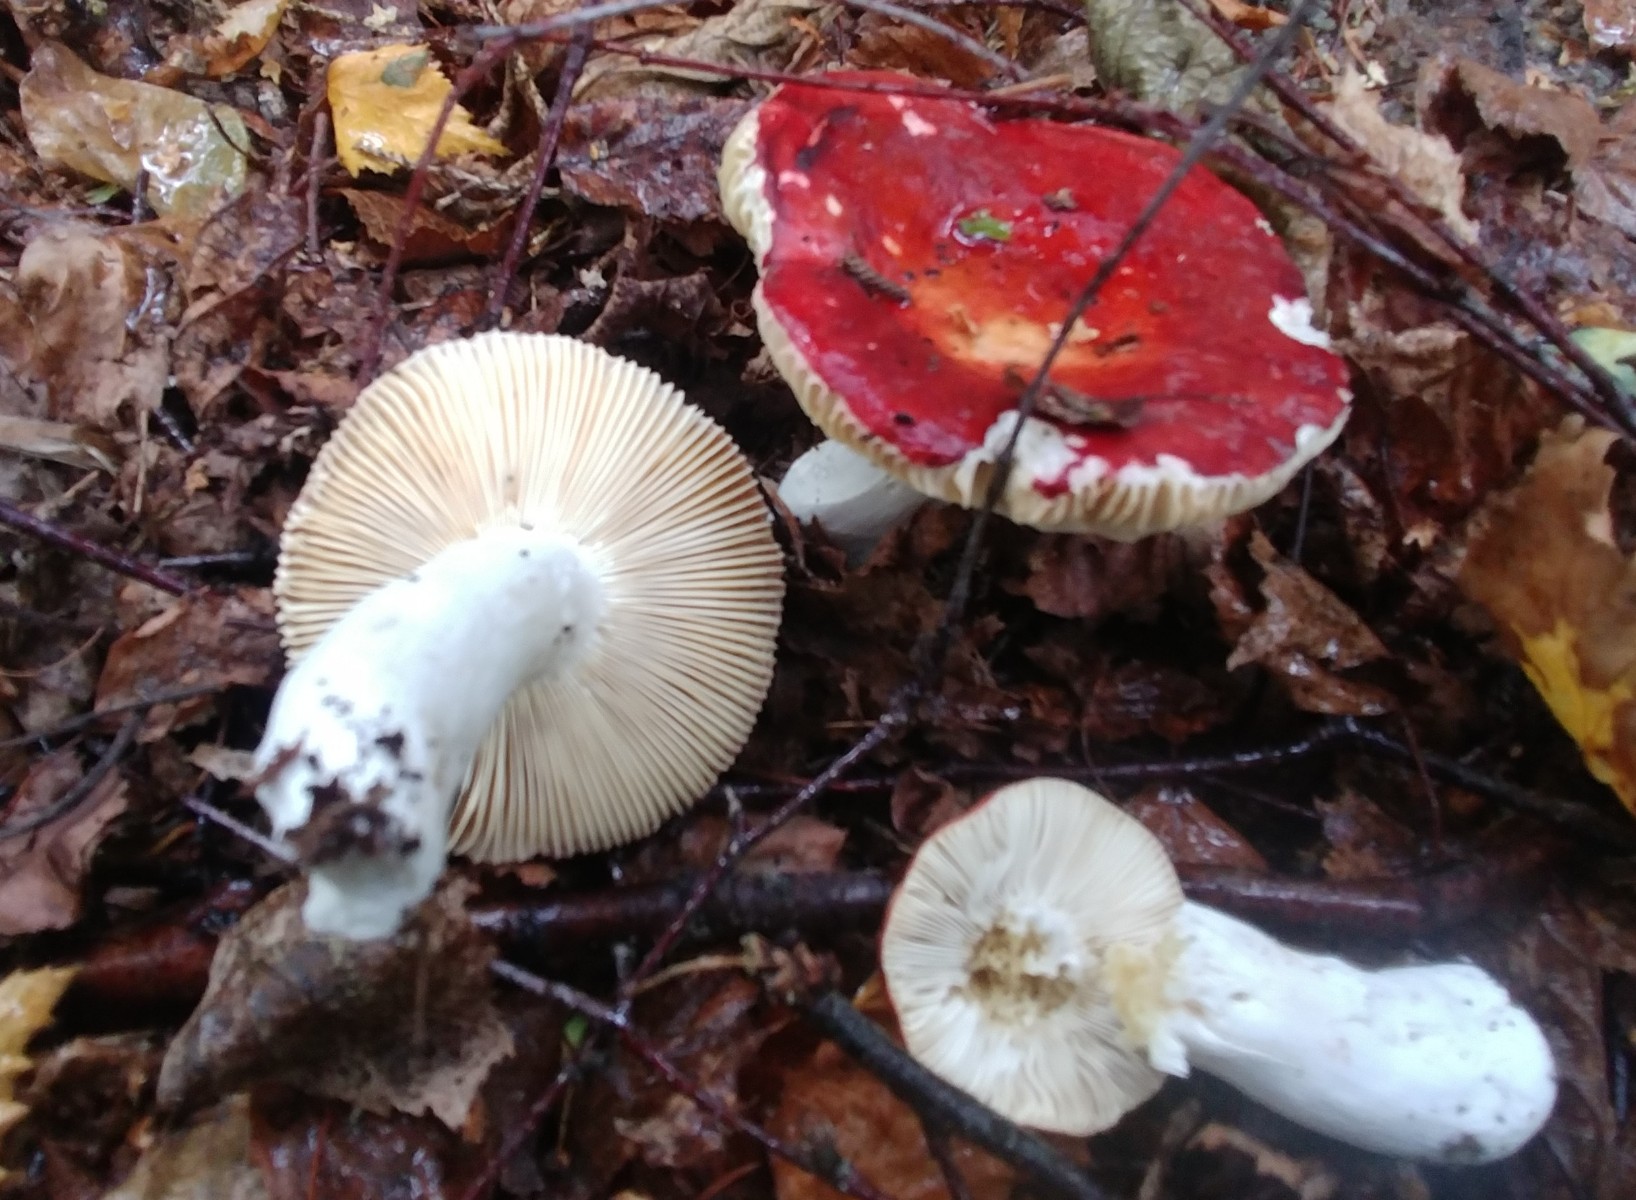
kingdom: Fungi
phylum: Basidiomycota
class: Agaricomycetes
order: Russulales
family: Russulaceae
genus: Russula
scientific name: Russula
